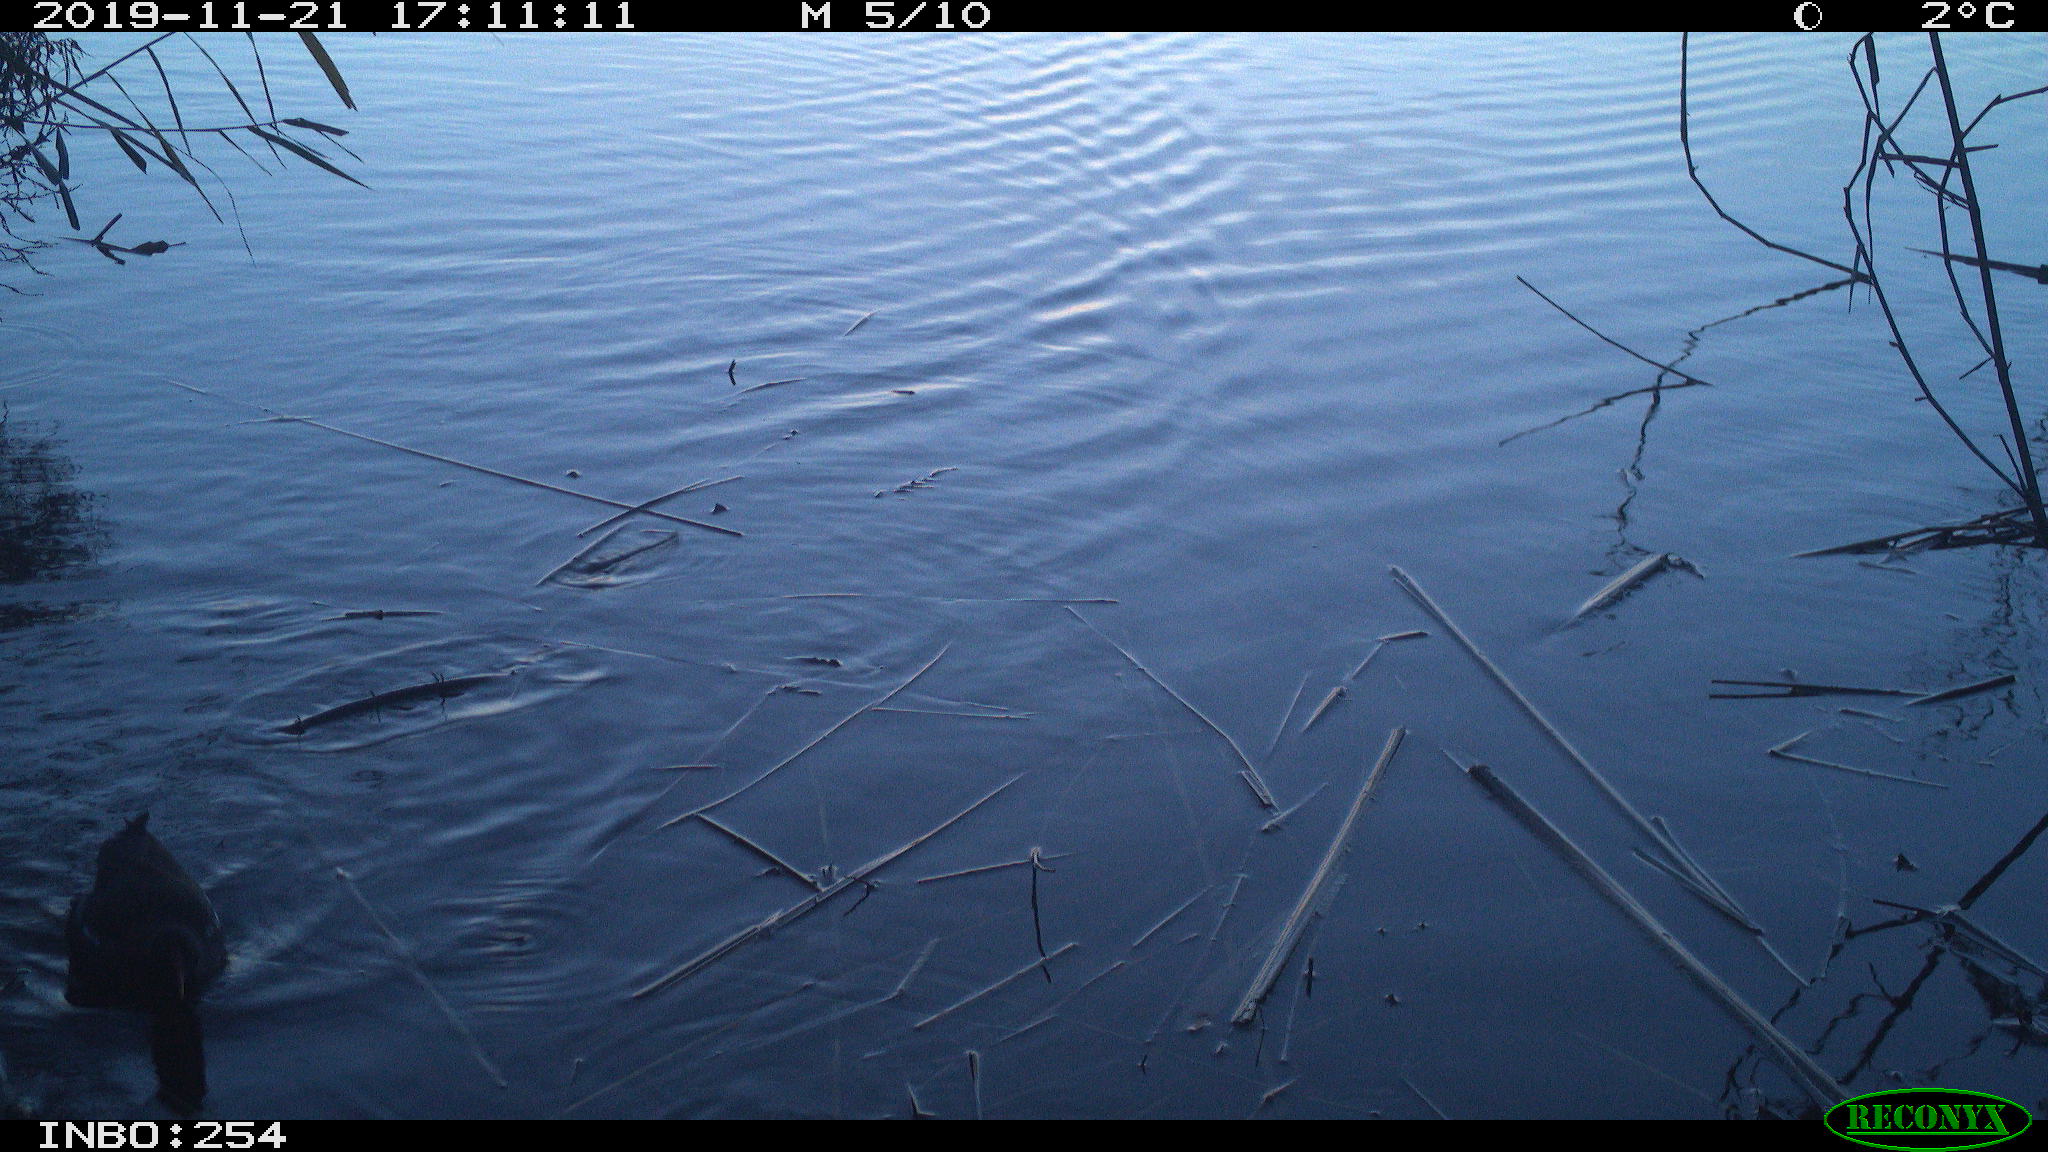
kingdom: Animalia
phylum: Chordata
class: Aves
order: Gruiformes
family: Rallidae
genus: Gallinula
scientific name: Gallinula chloropus
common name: Common moorhen
